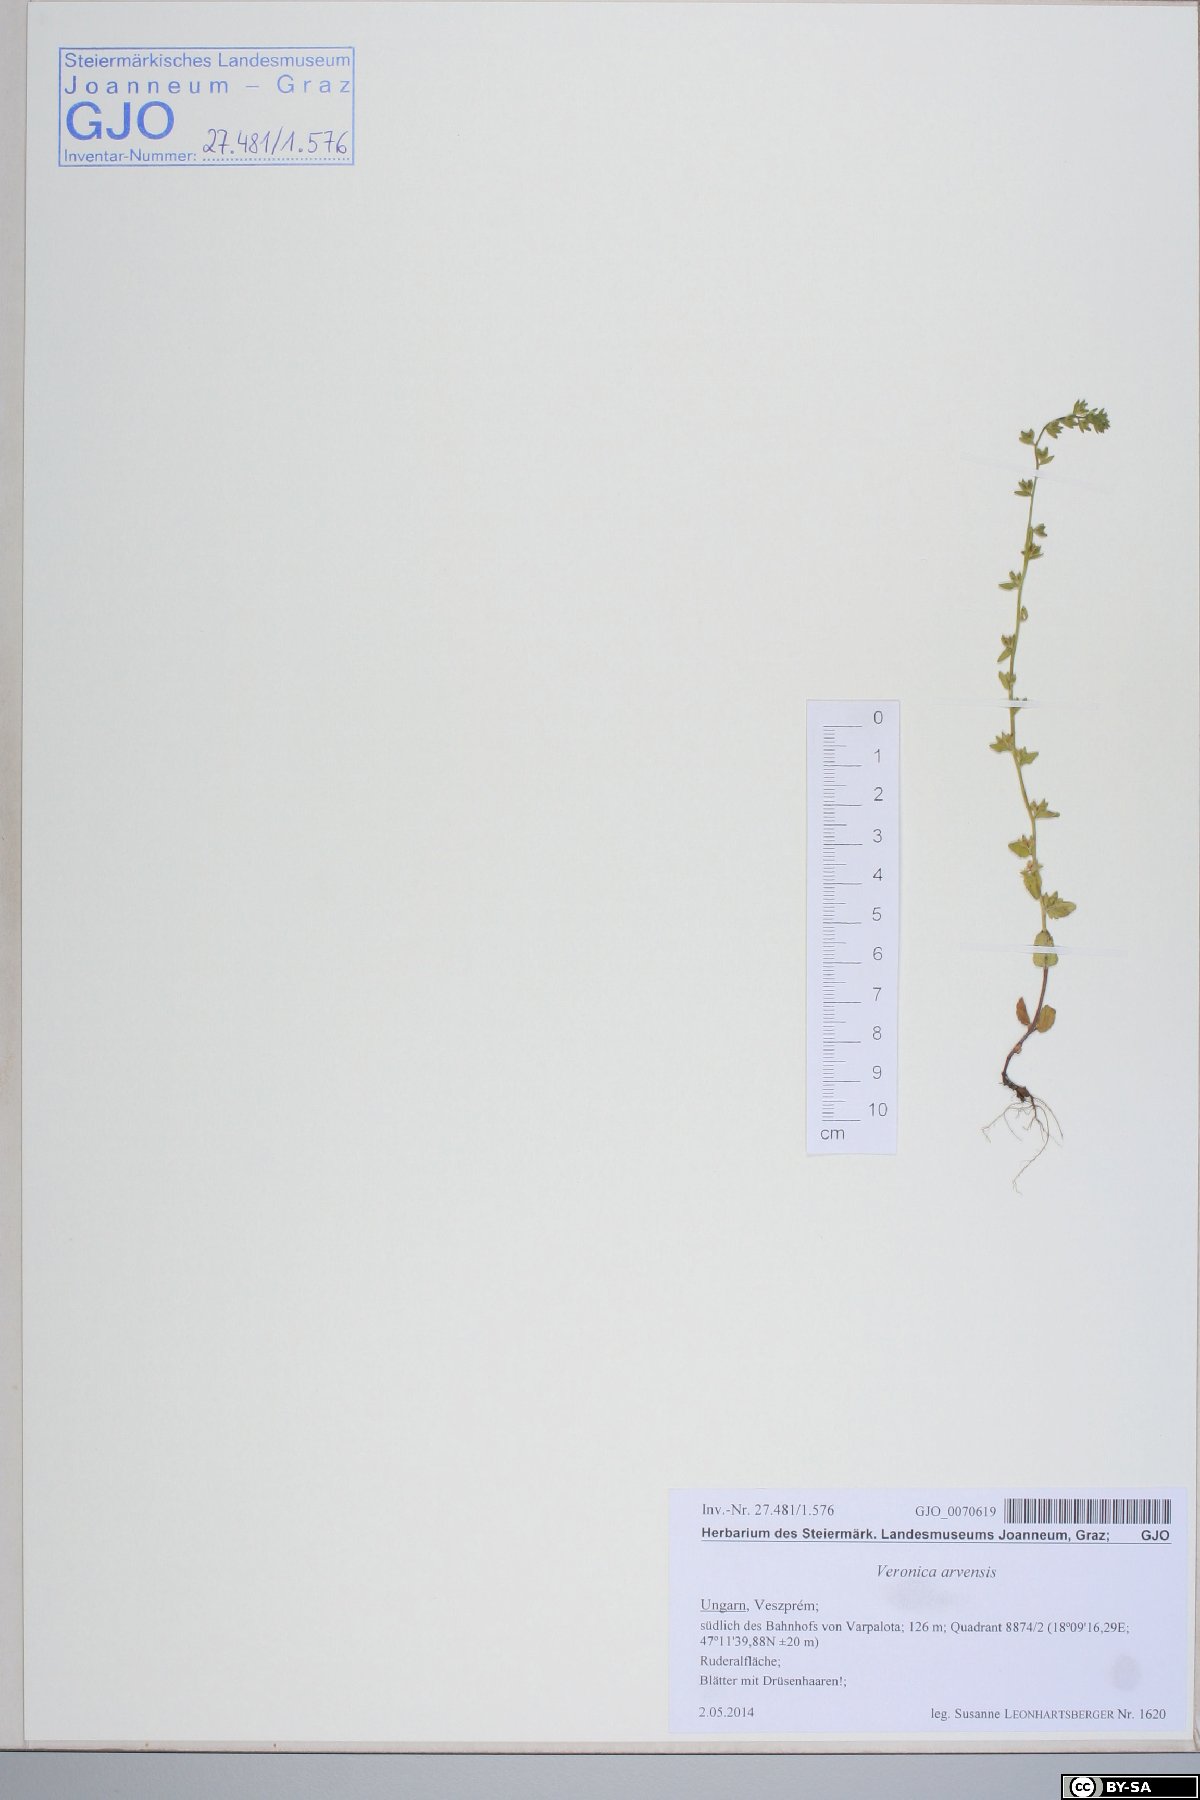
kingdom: Plantae
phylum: Tracheophyta
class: Magnoliopsida
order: Lamiales
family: Plantaginaceae
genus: Veronica
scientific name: Veronica arvensis
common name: Corn speedwell
